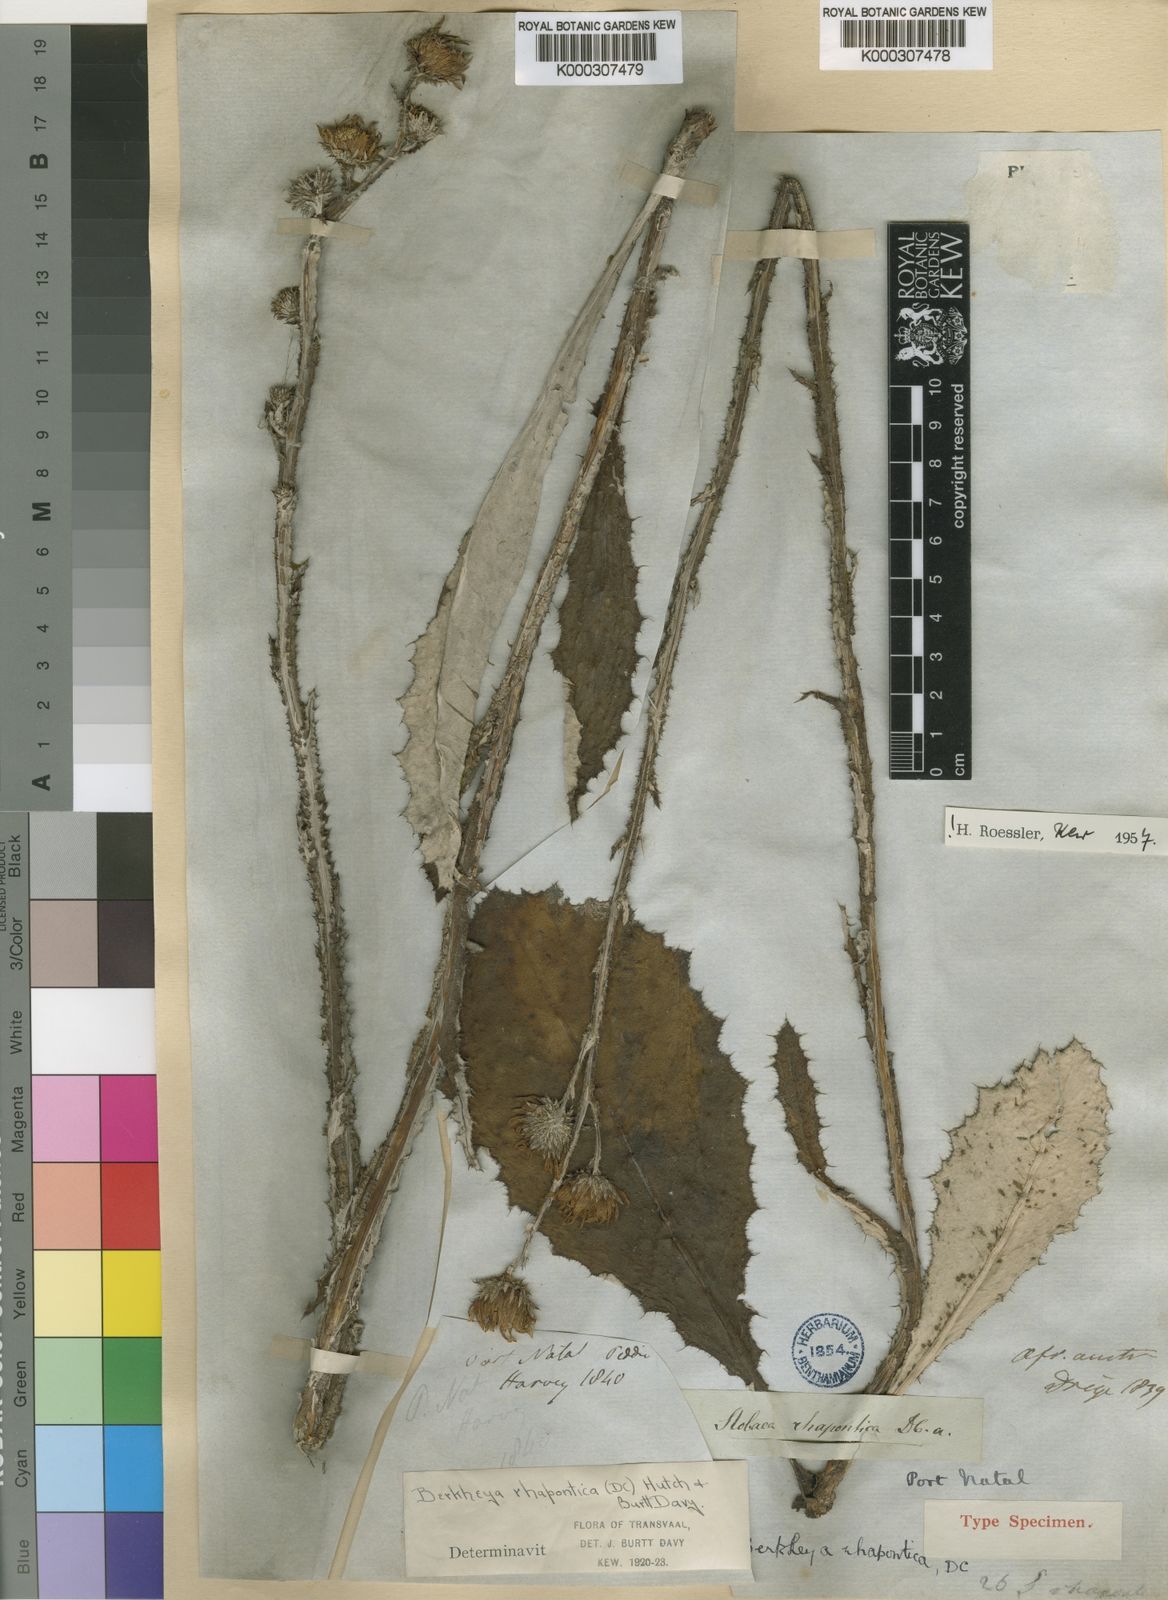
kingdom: Plantae
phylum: Tracheophyta
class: Magnoliopsida
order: Asterales
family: Asteraceae
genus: Berkheya
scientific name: Berkheya rhapontica
